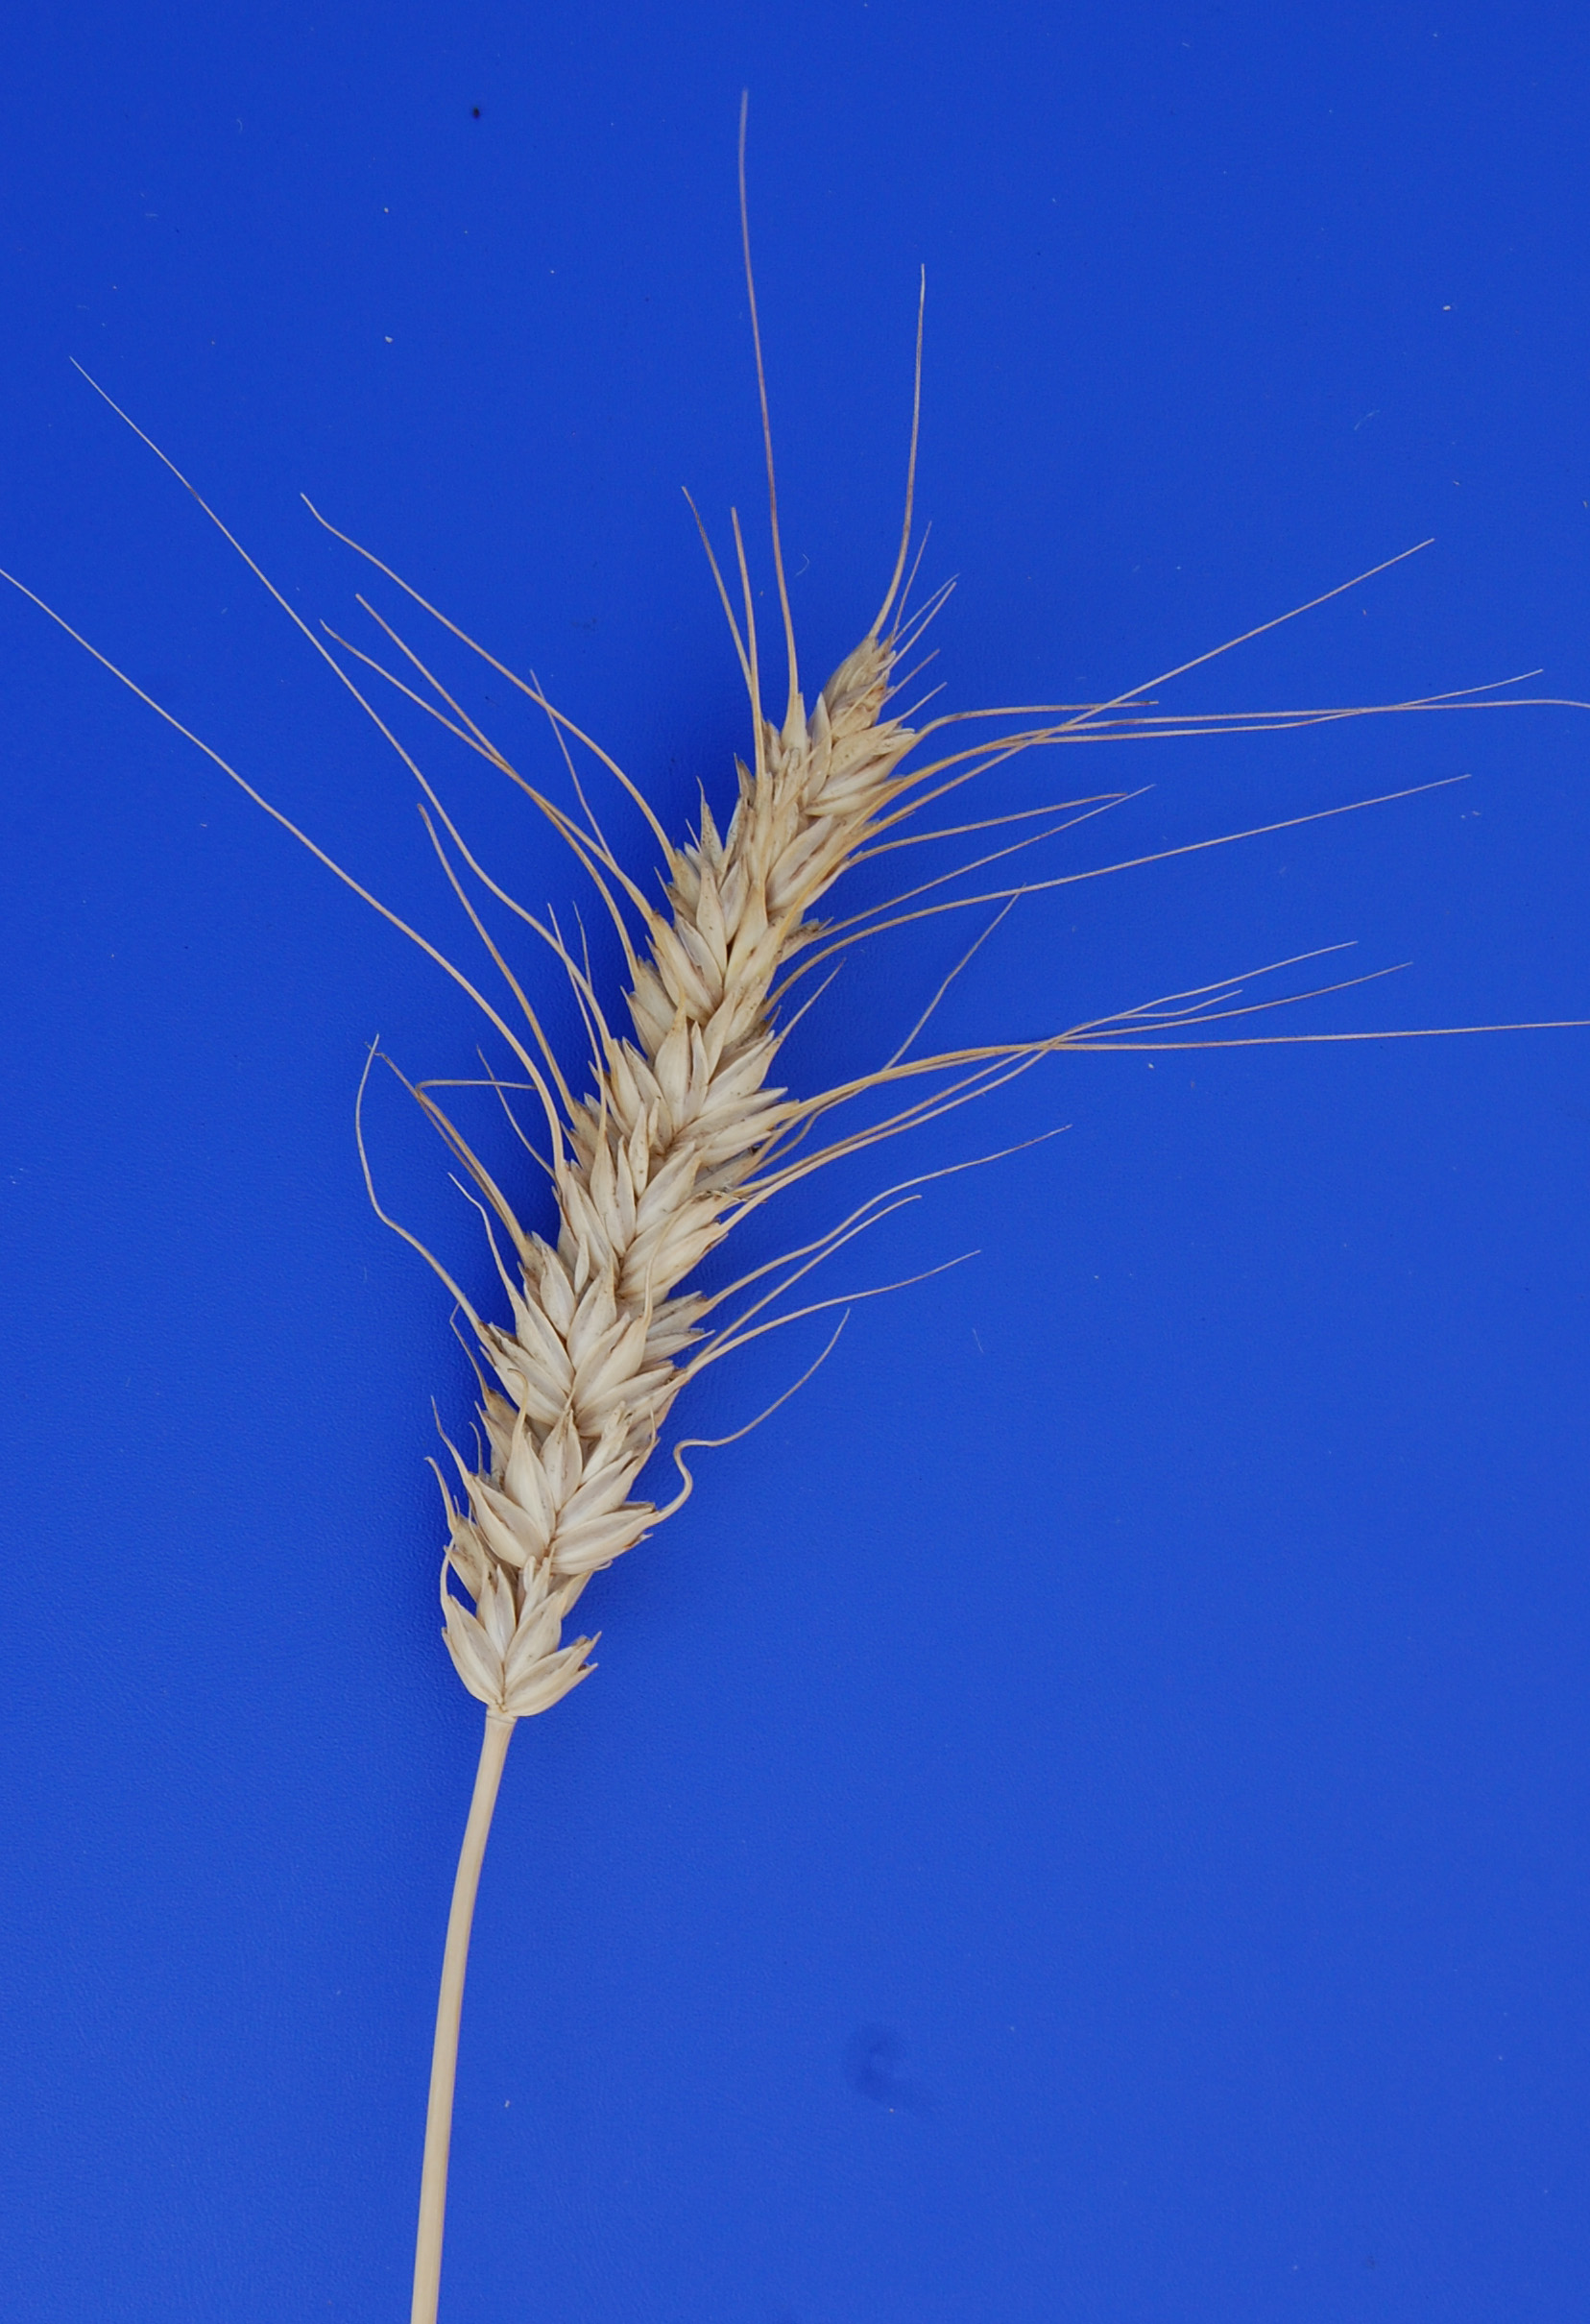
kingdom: Plantae
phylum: Tracheophyta
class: Liliopsida
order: Poales
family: Poaceae
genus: Triticum
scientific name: Triticum aestivum
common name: Common wheat
